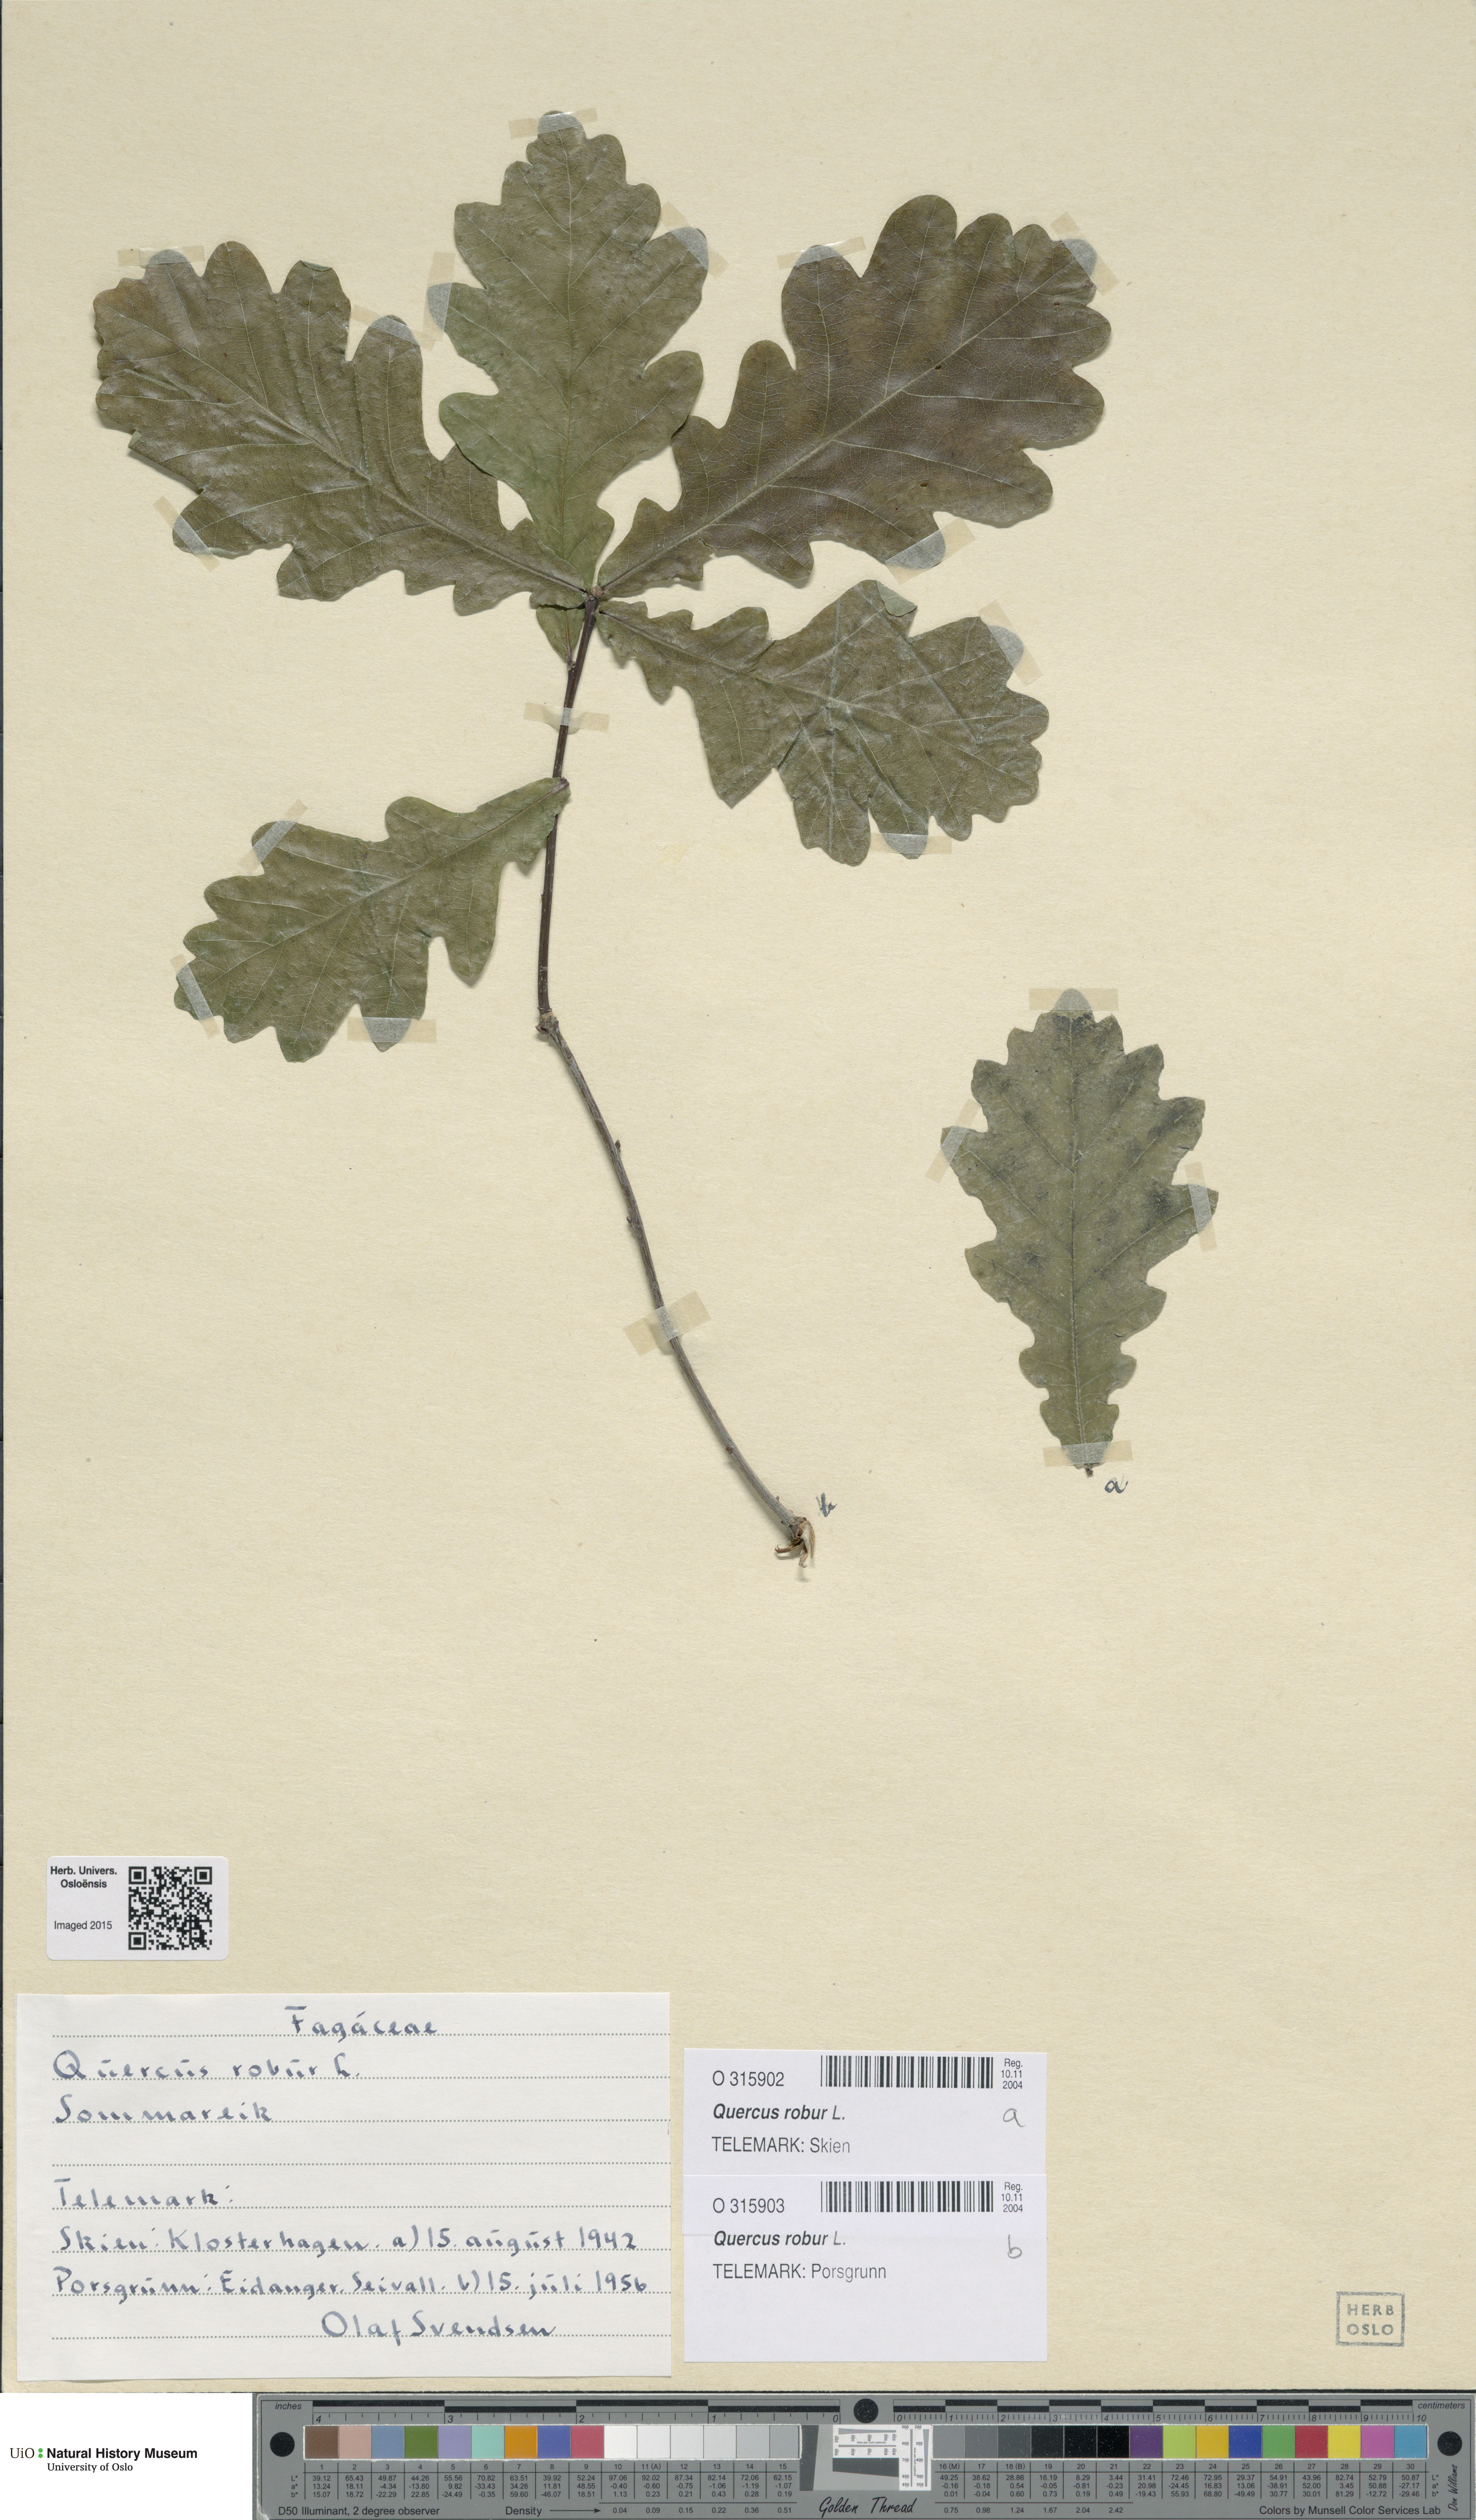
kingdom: Plantae
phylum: Tracheophyta
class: Magnoliopsida
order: Fagales
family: Fagaceae
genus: Quercus
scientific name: Quercus robur
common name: Pedunculate oak
